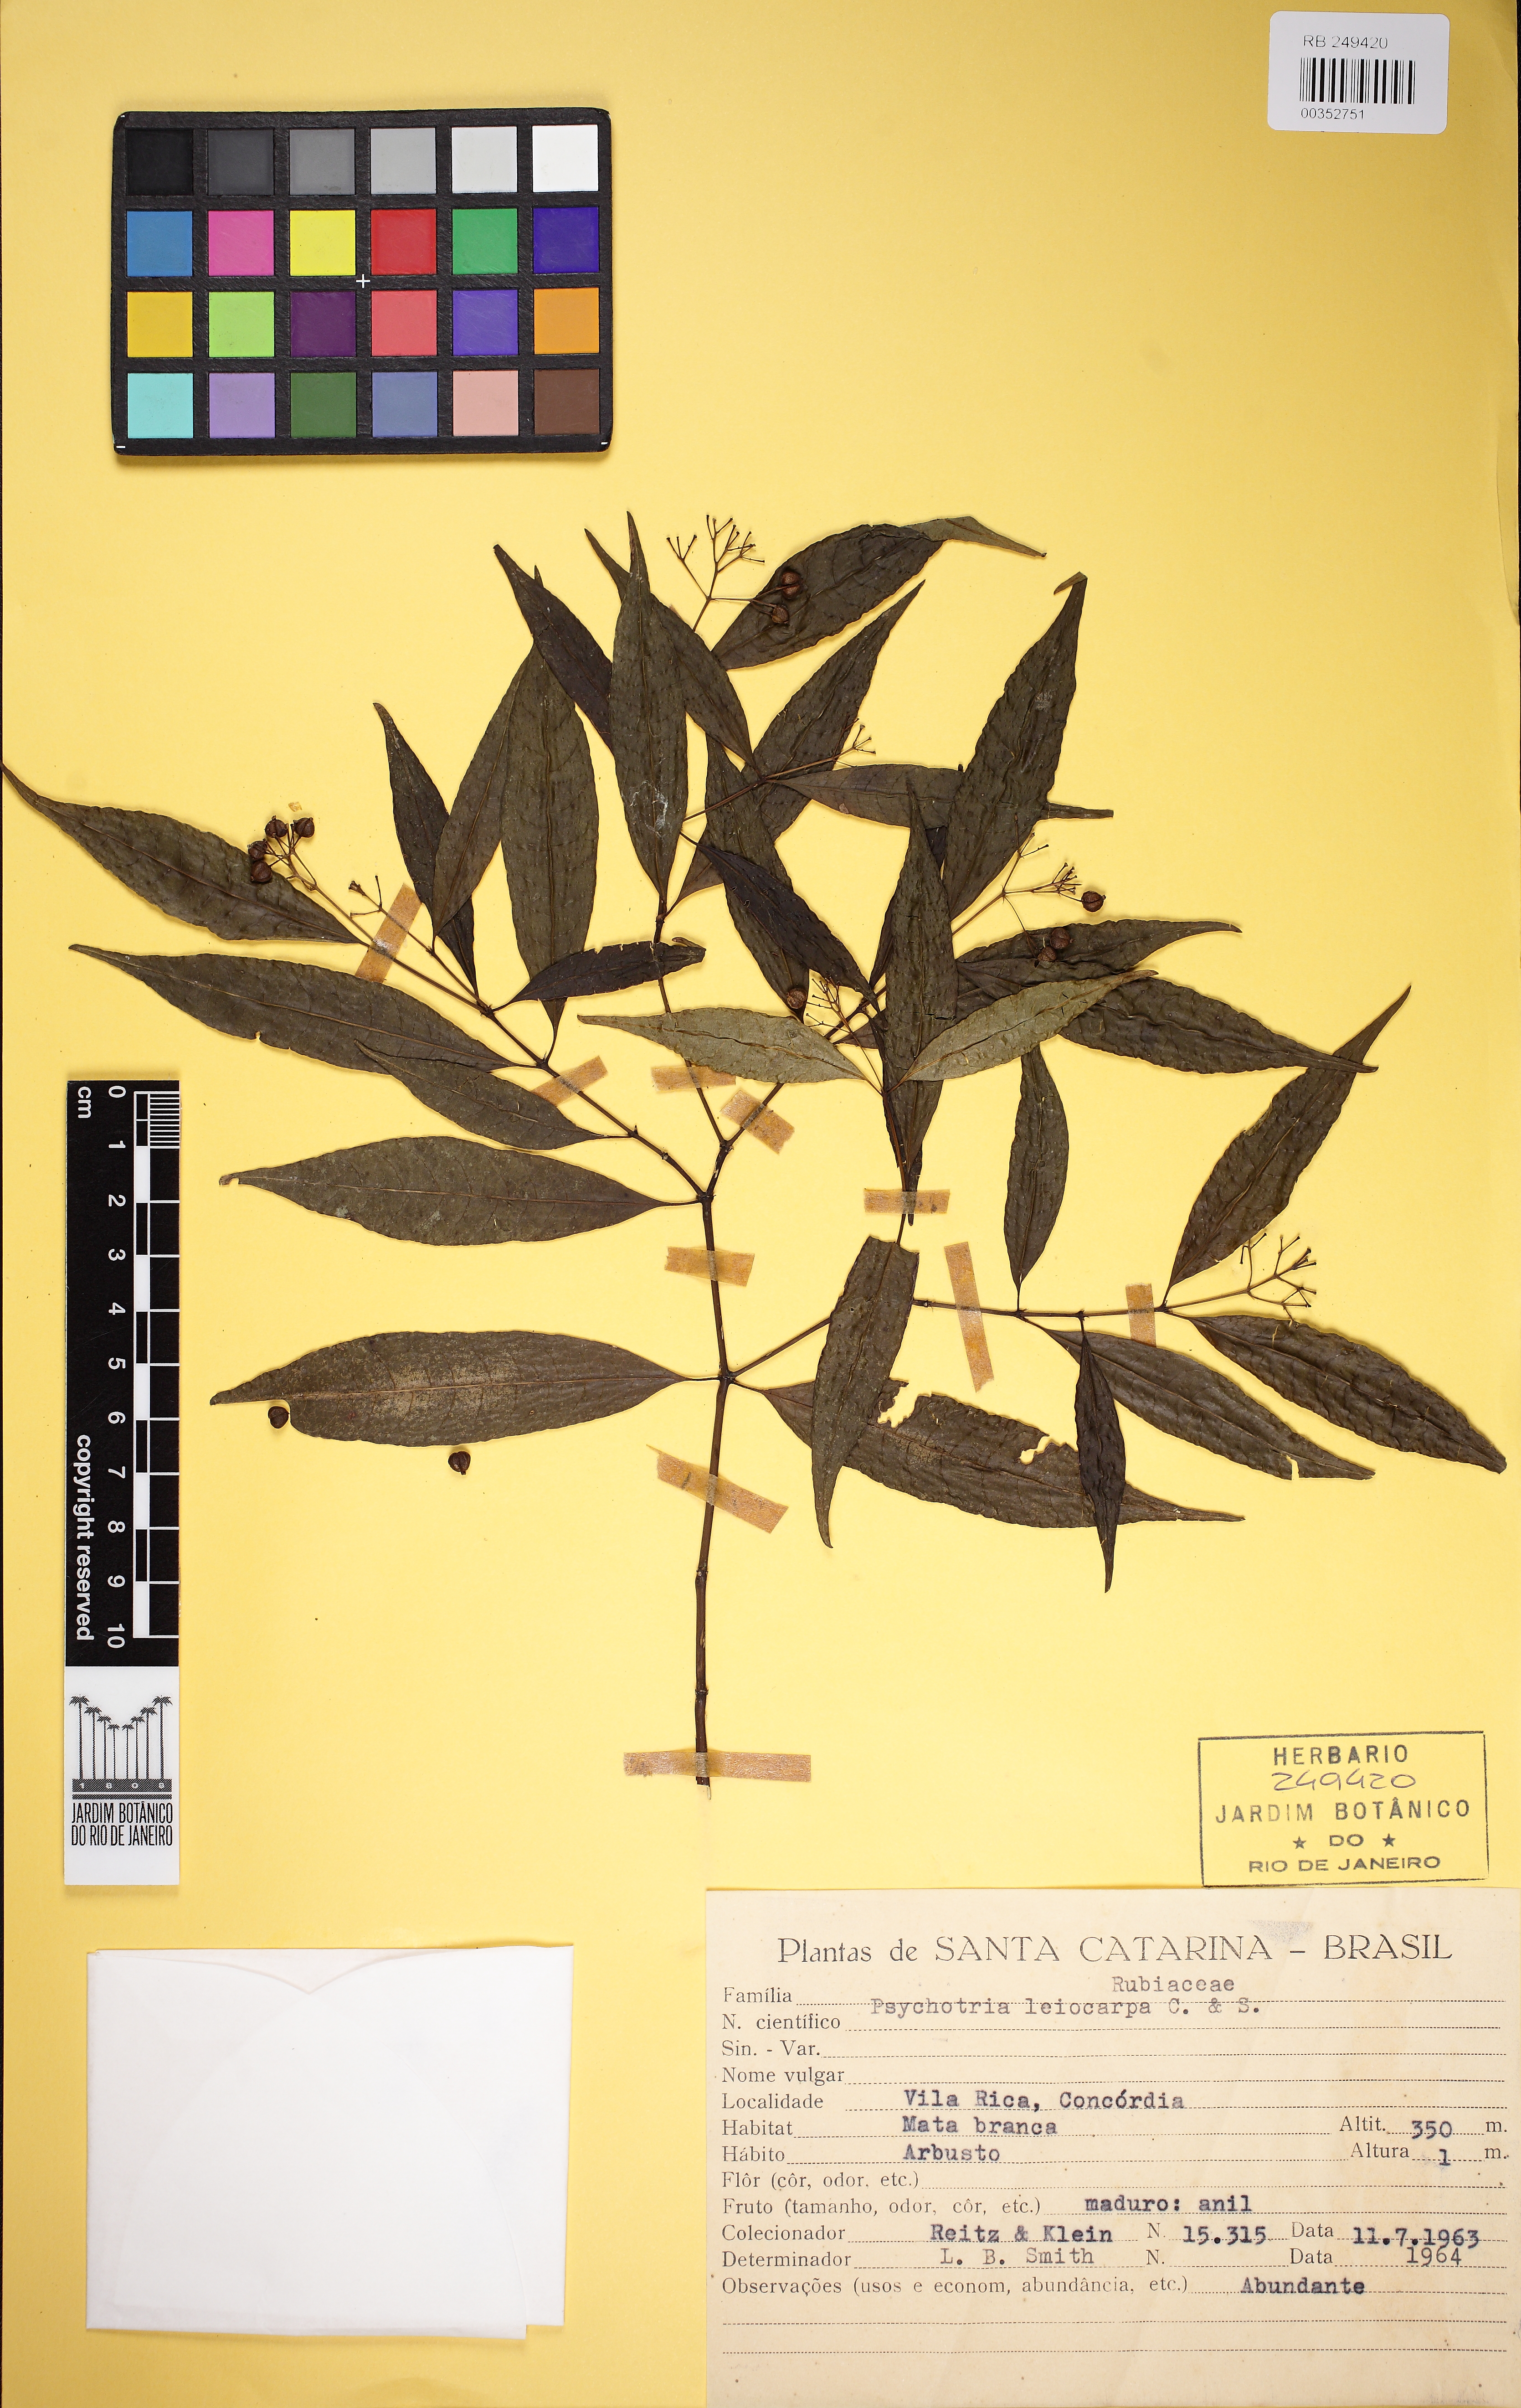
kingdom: Plantae
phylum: Tracheophyta
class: Magnoliopsida
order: Gentianales
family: Rubiaceae
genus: Psychotria
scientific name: Psychotria leiocarpa
